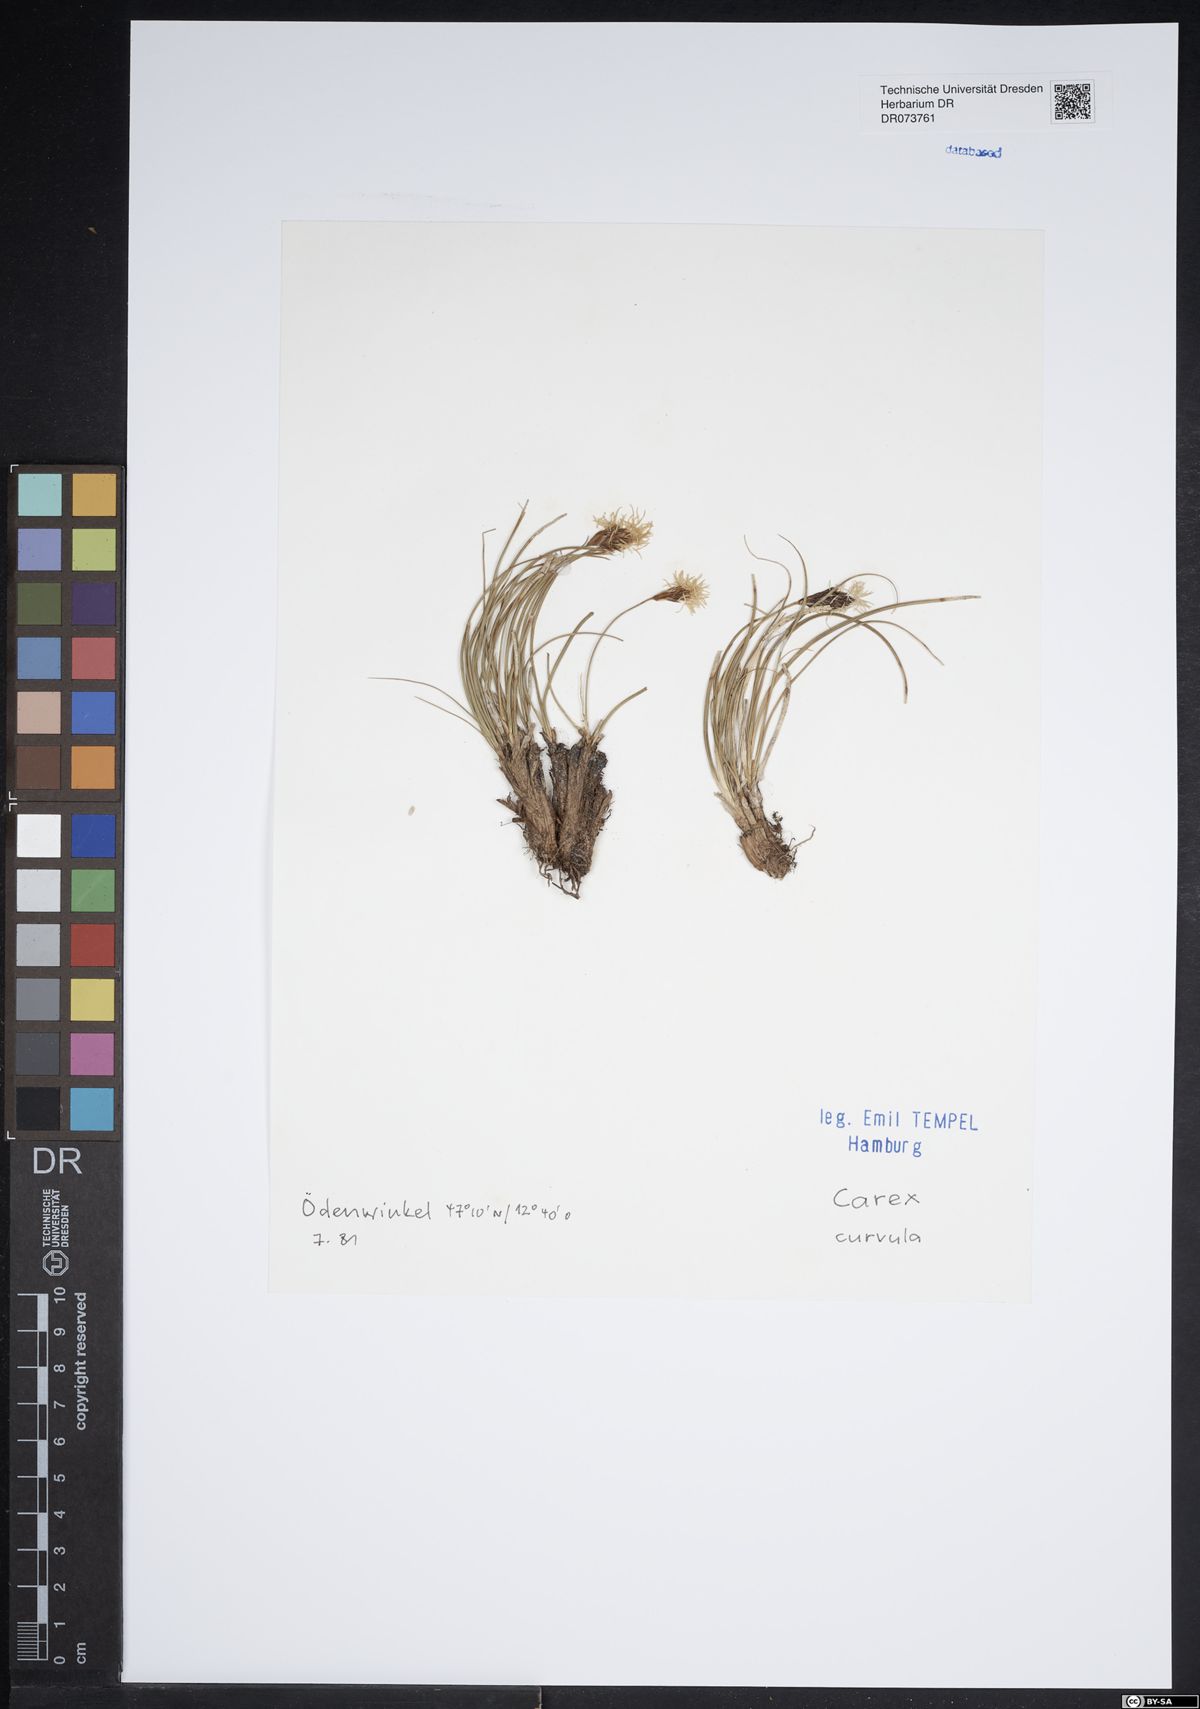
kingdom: Plantae
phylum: Tracheophyta
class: Liliopsida
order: Poales
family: Cyperaceae
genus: Carex
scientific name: Carex curvula
